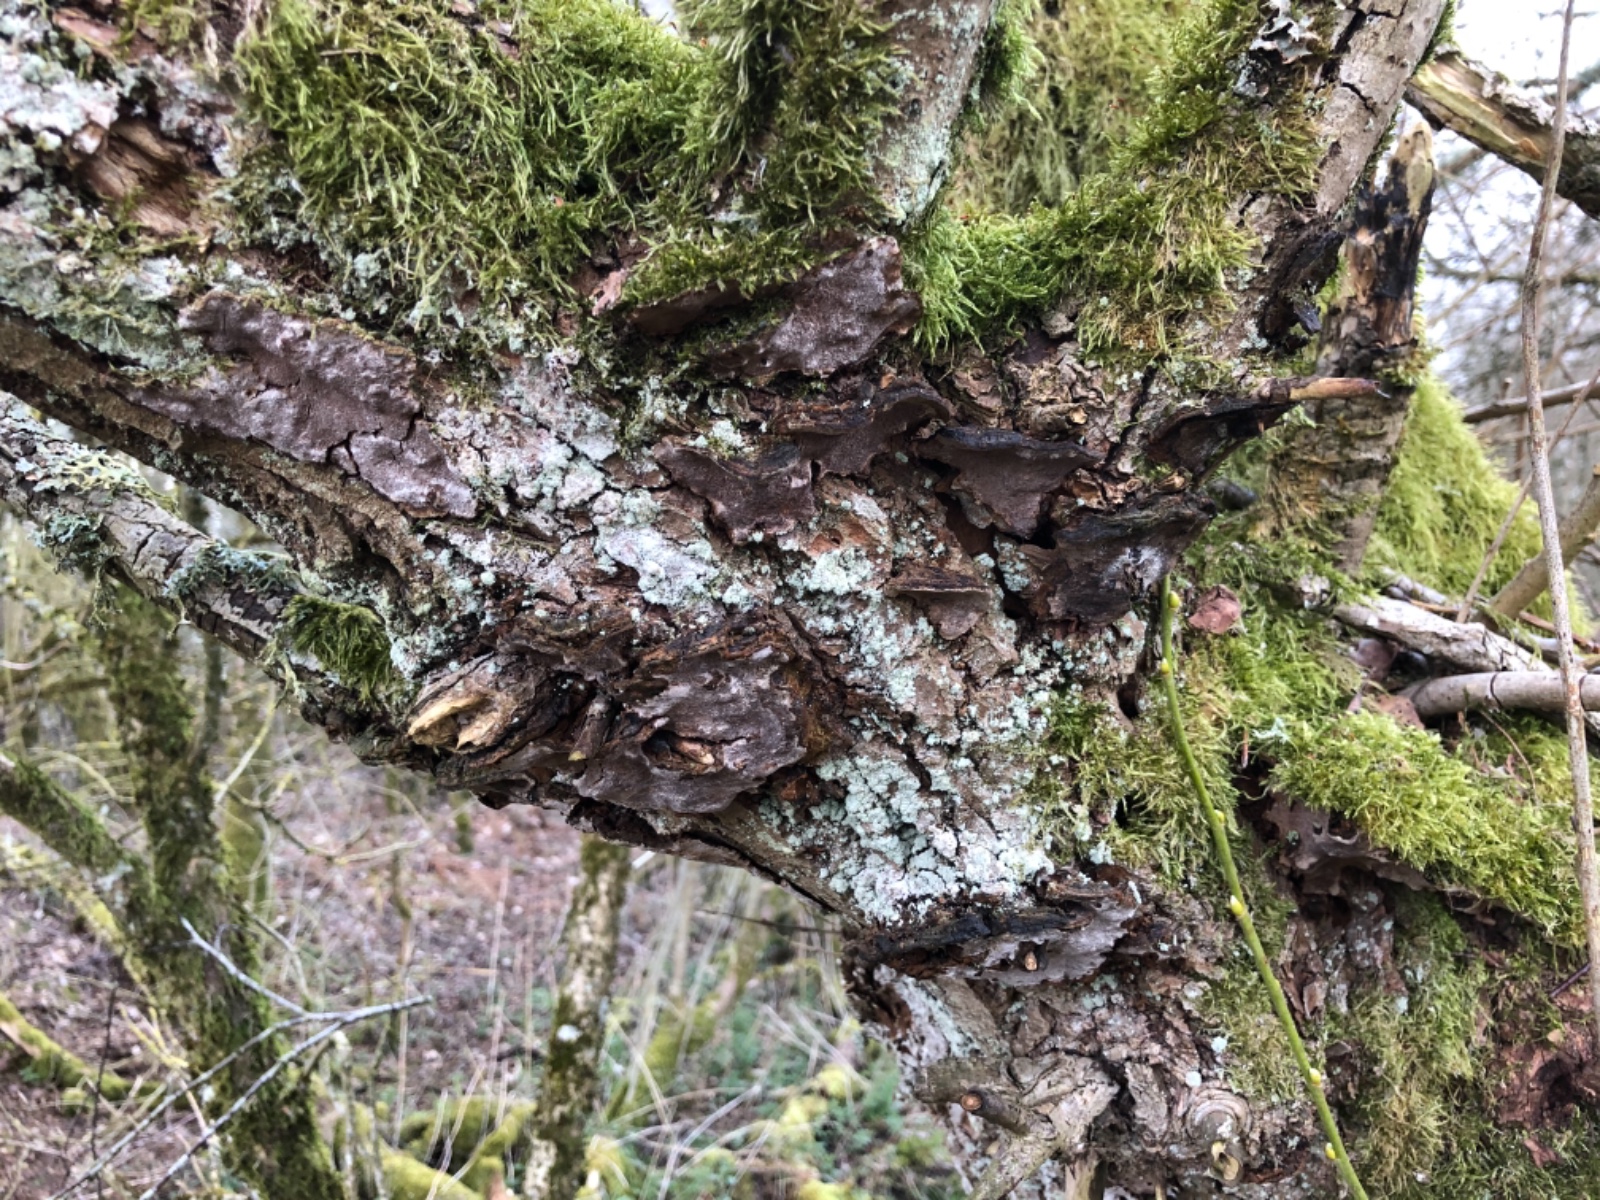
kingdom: Fungi
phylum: Basidiomycota
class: Agaricomycetes
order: Hymenochaetales
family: Hymenochaetaceae
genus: Phellinopsis
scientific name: Phellinopsis conchata
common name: pile-ildporesvamp
